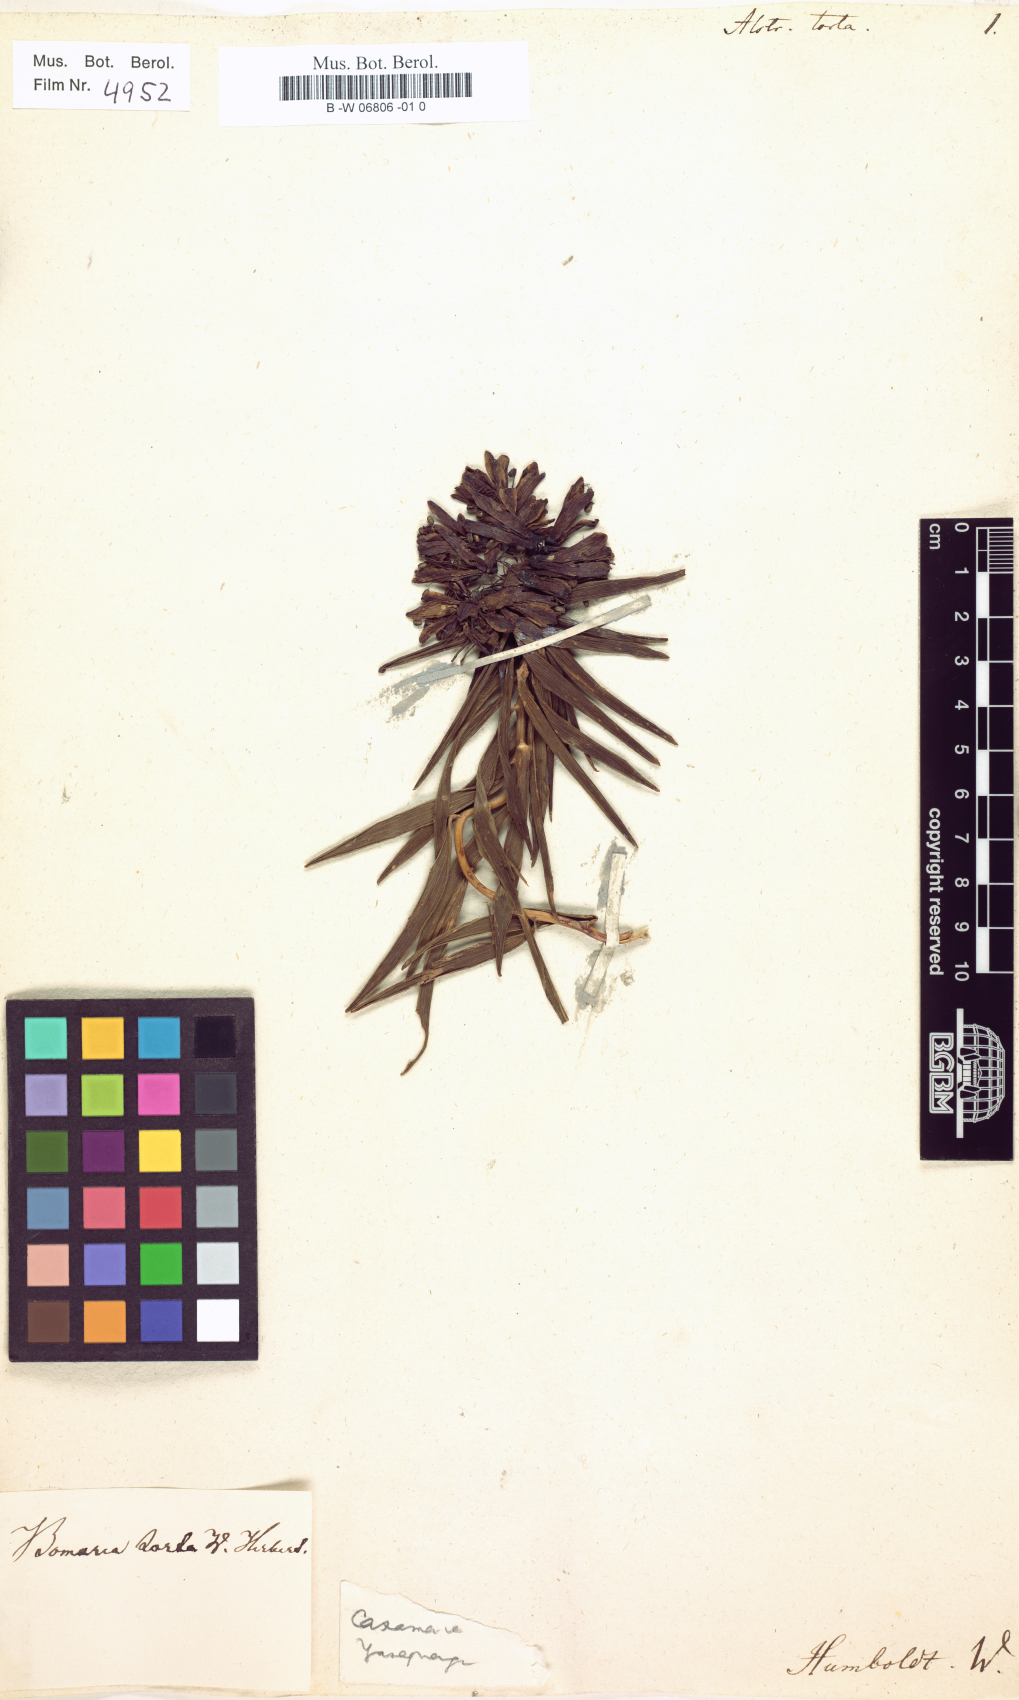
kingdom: Plantae
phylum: Tracheophyta
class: Liliopsida
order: Liliales
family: Alstroemeriaceae
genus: Bomarea
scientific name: Bomarea torta
